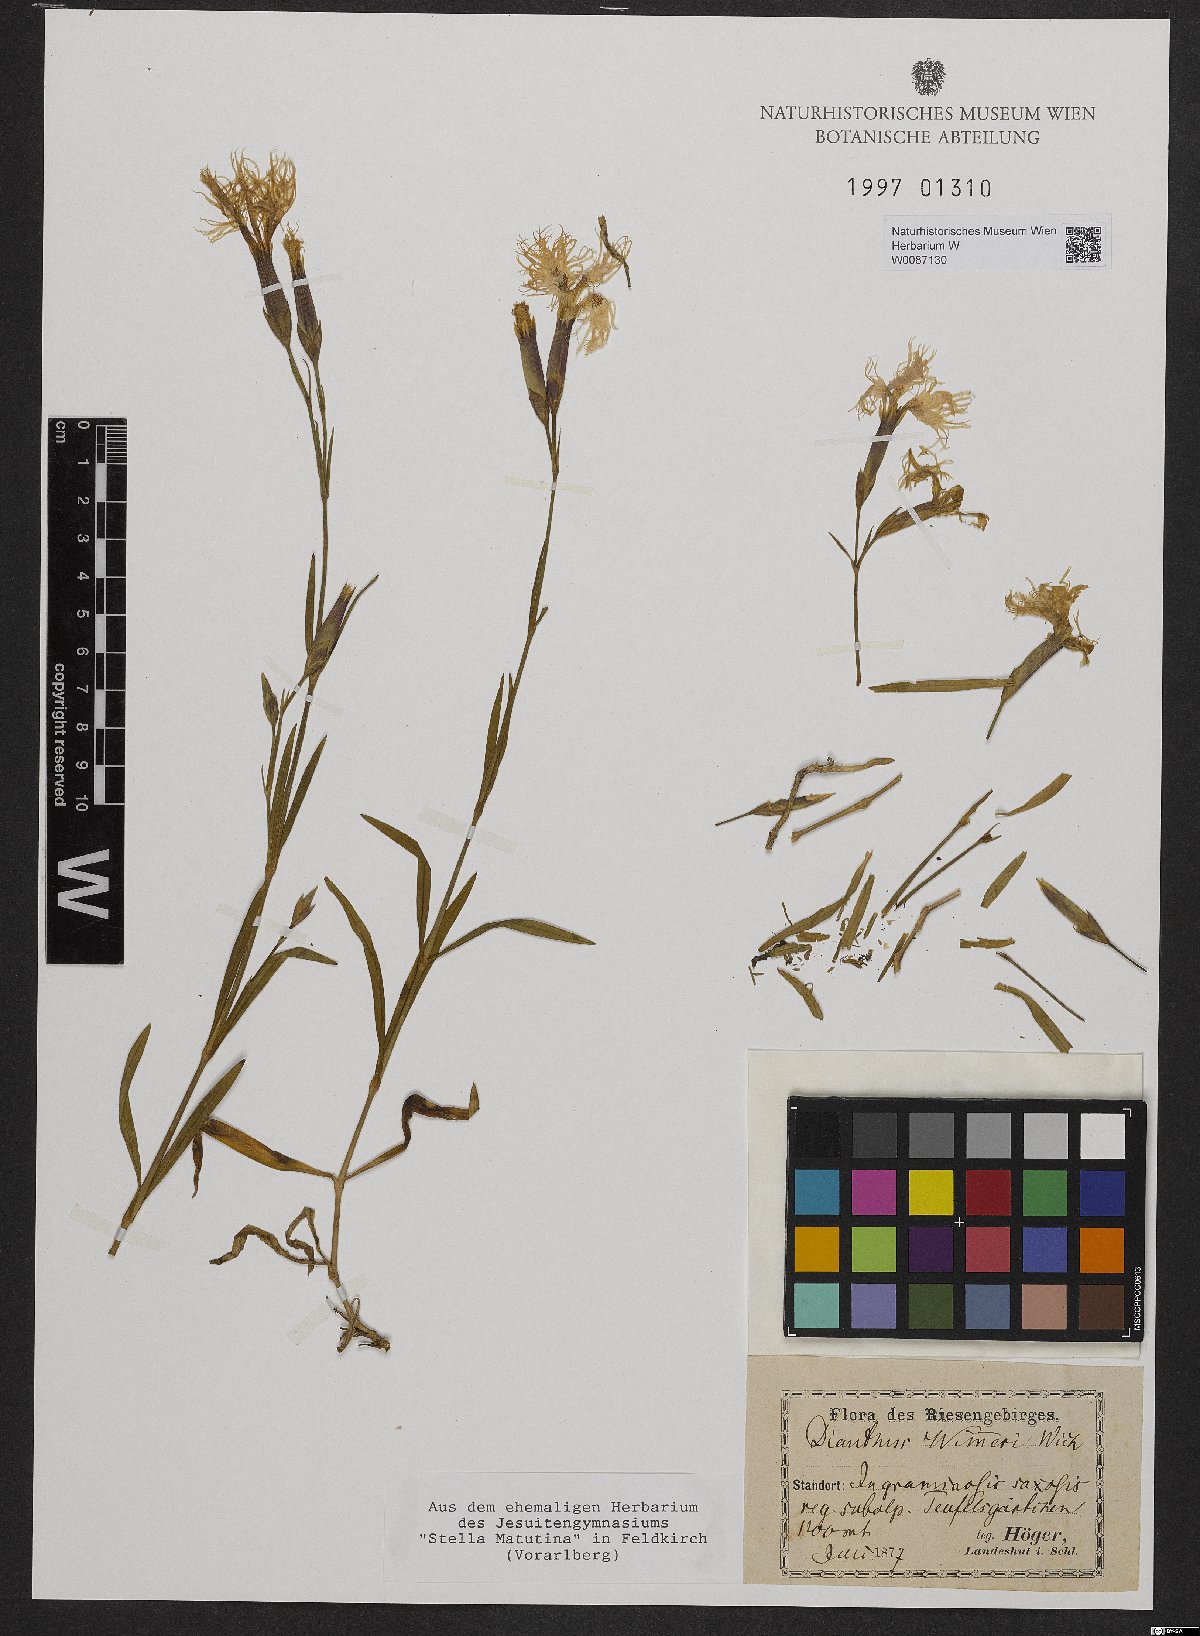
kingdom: Plantae
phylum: Tracheophyta
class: Magnoliopsida
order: Caryophyllales
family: Caryophyllaceae
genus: Dianthus
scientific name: Dianthus superbus
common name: Fringed pink
